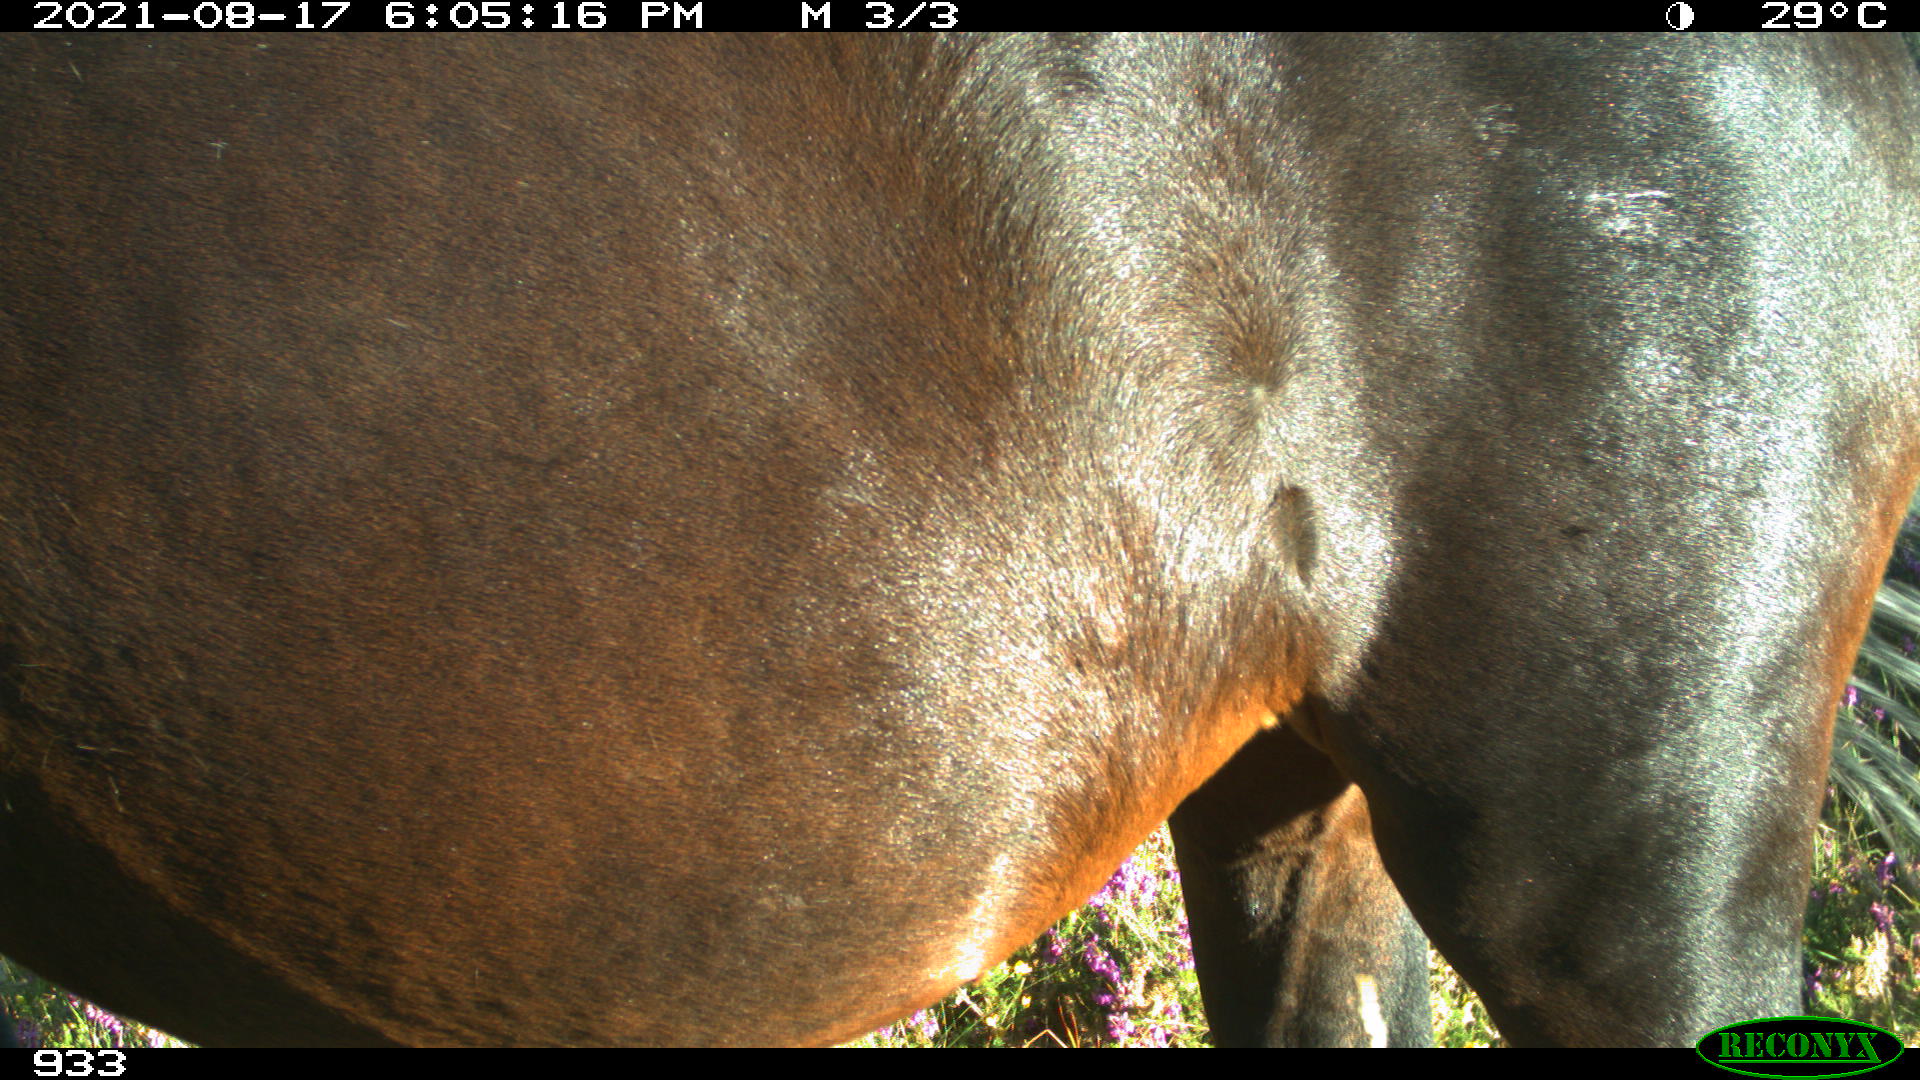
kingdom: Animalia
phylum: Chordata
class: Mammalia
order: Perissodactyla
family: Equidae
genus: Equus
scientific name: Equus caballus
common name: Horse
